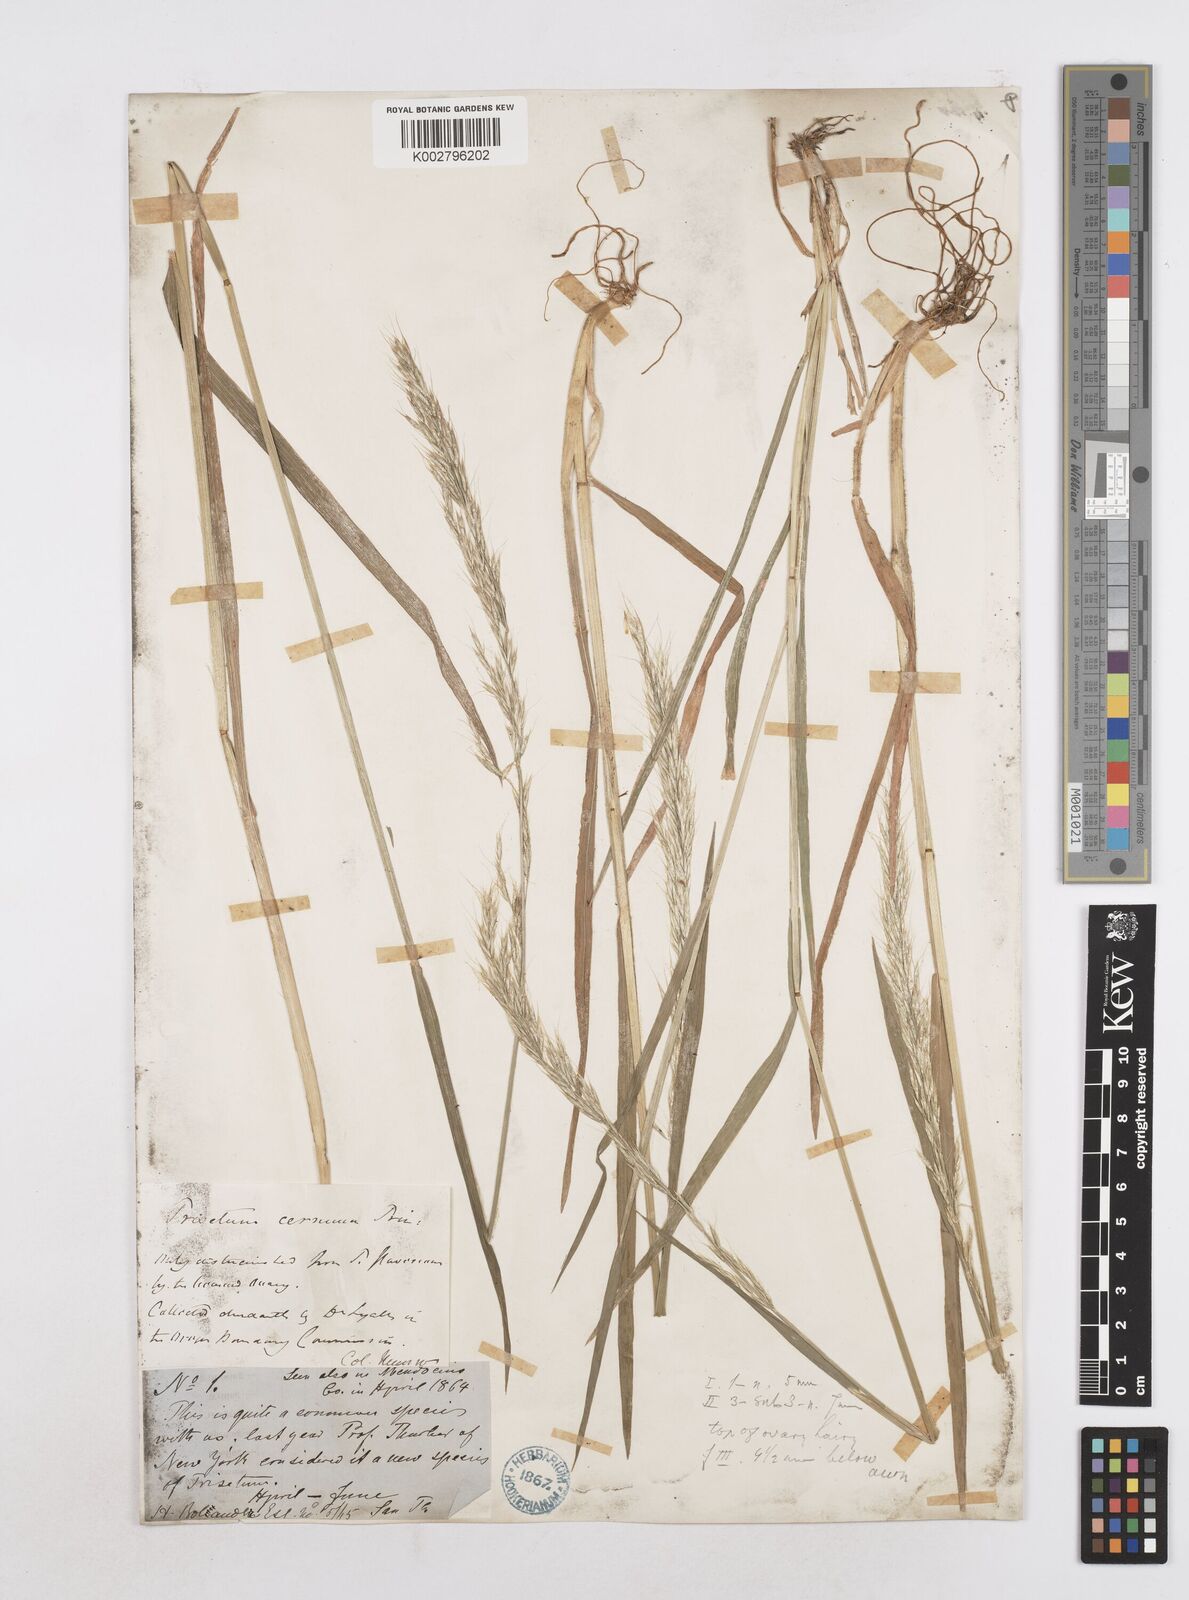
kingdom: Plantae
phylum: Tracheophyta
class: Liliopsida
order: Poales
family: Poaceae
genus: Graphephorum
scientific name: Graphephorum canescens
